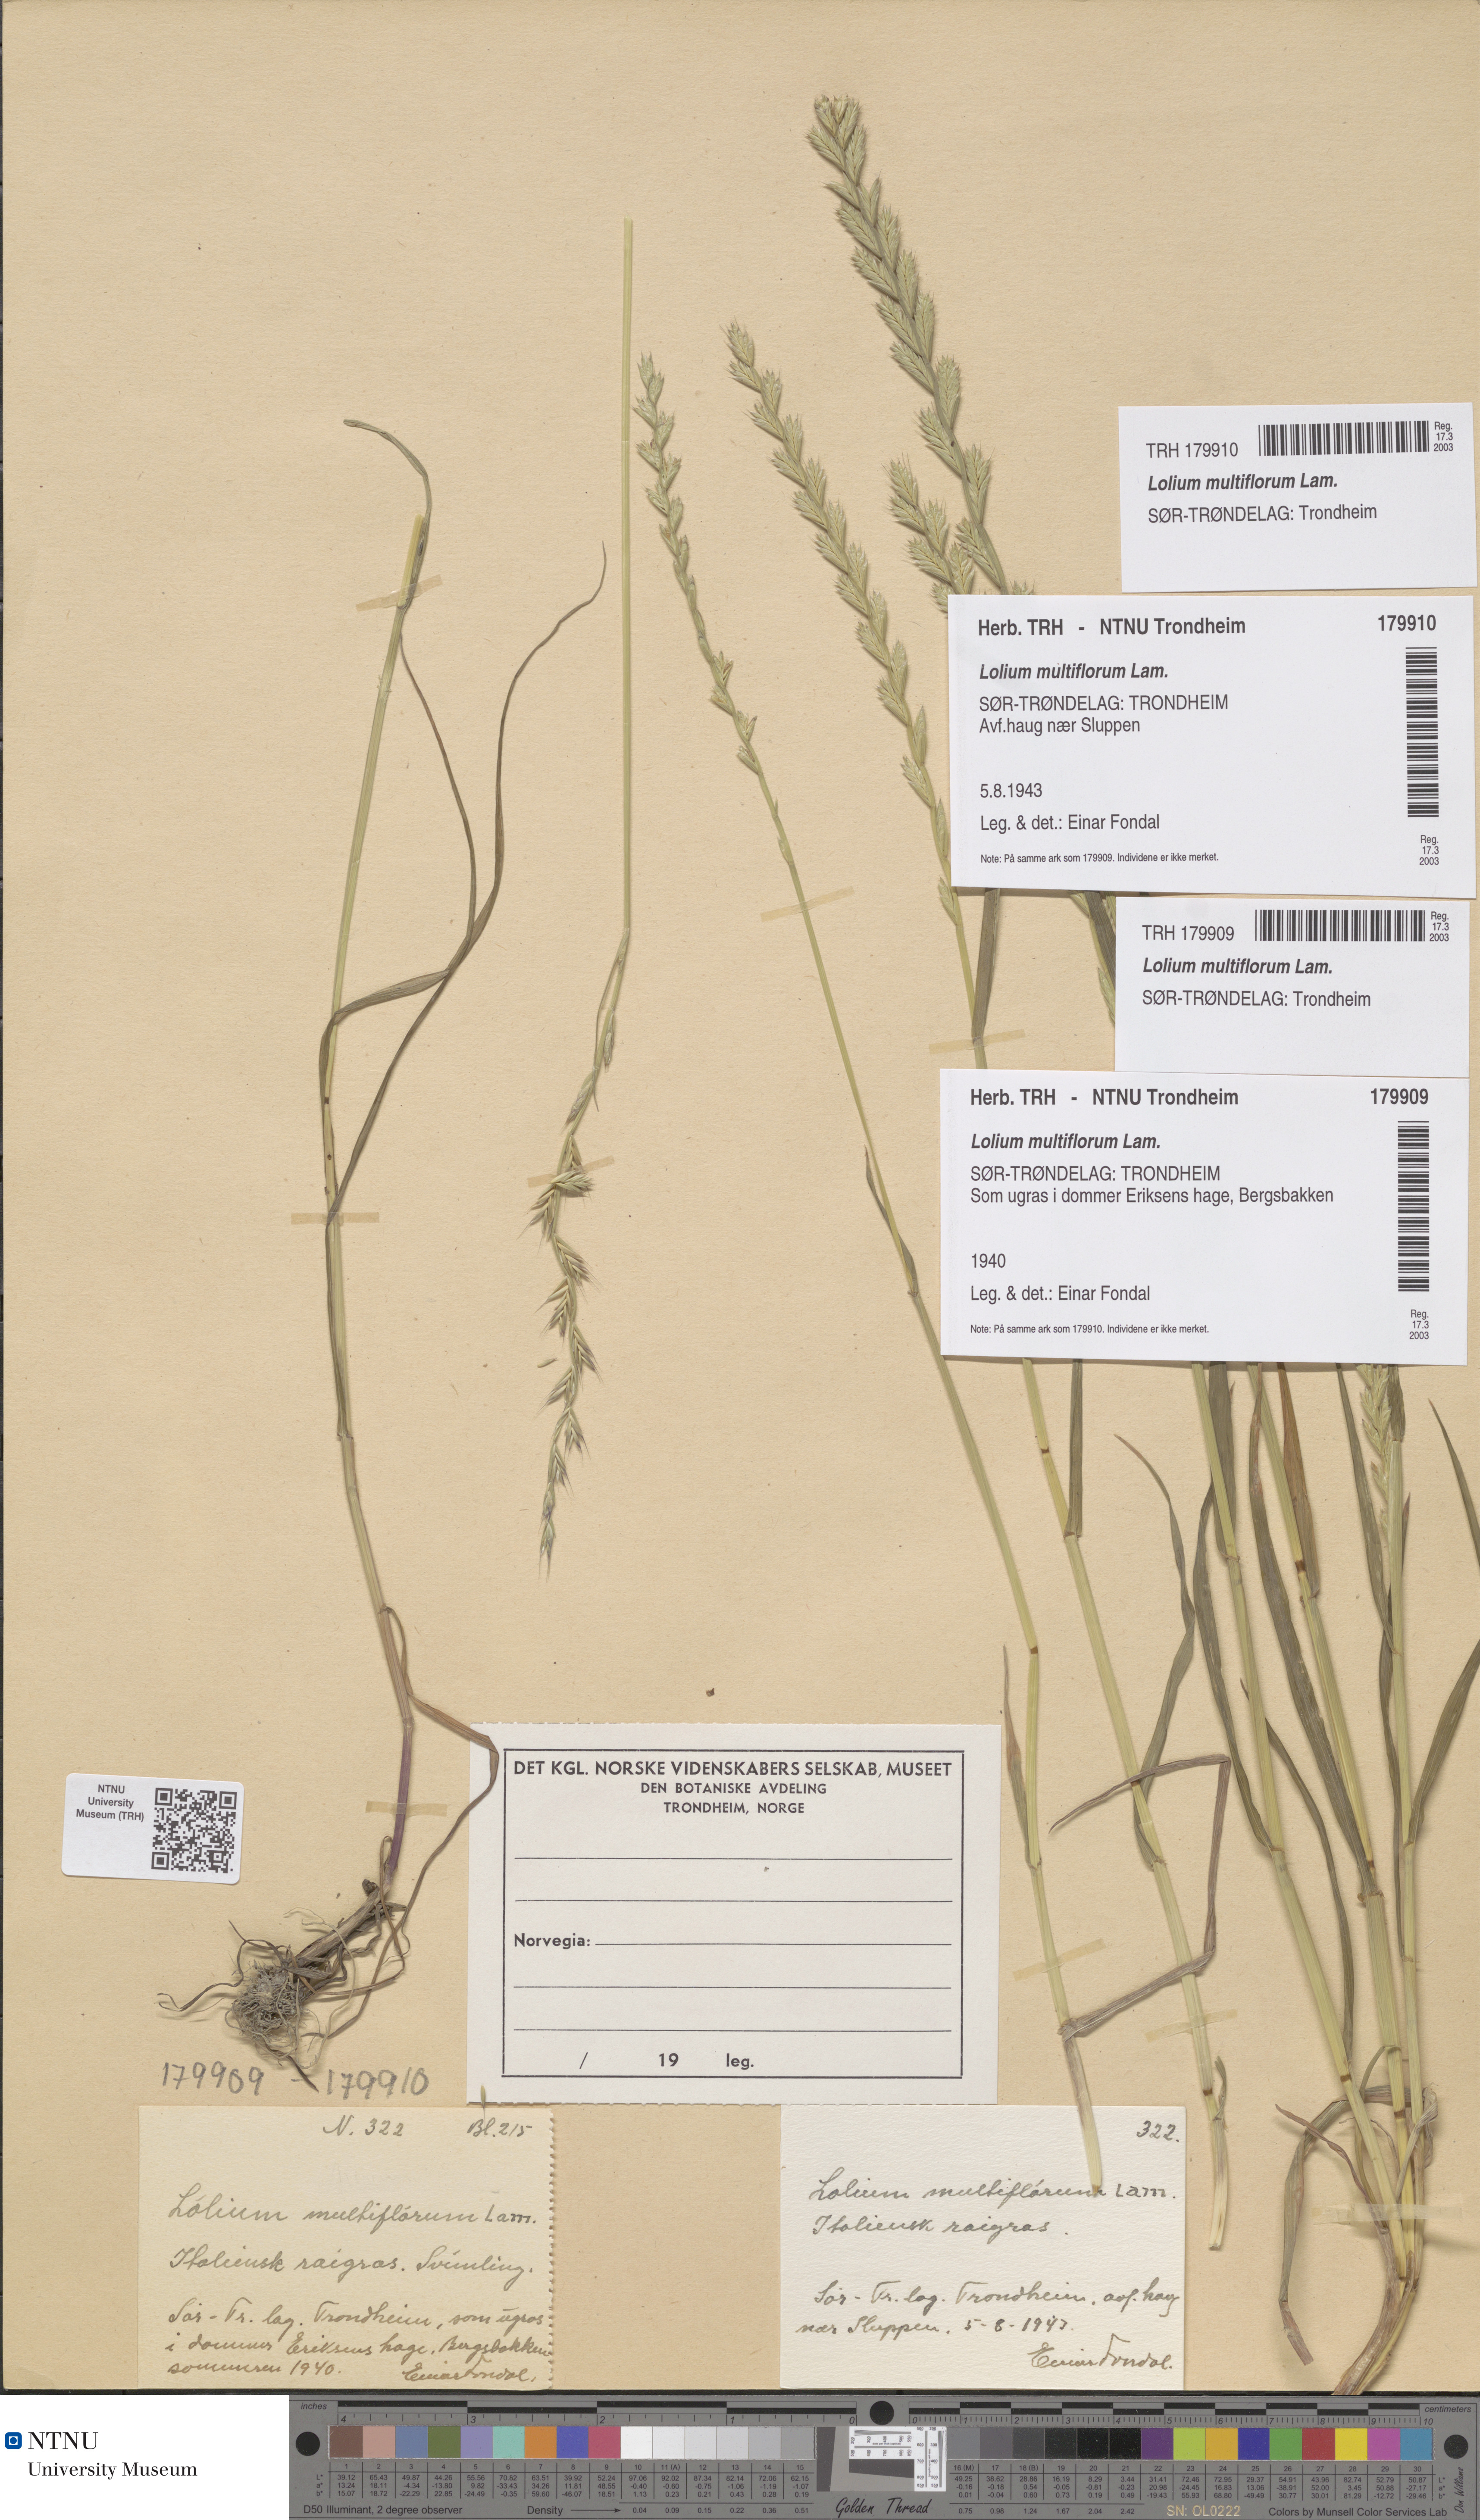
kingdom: Plantae
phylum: Tracheophyta
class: Liliopsida
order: Poales
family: Poaceae
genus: Lolium
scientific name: Lolium multiflorum
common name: Annual ryegrass
